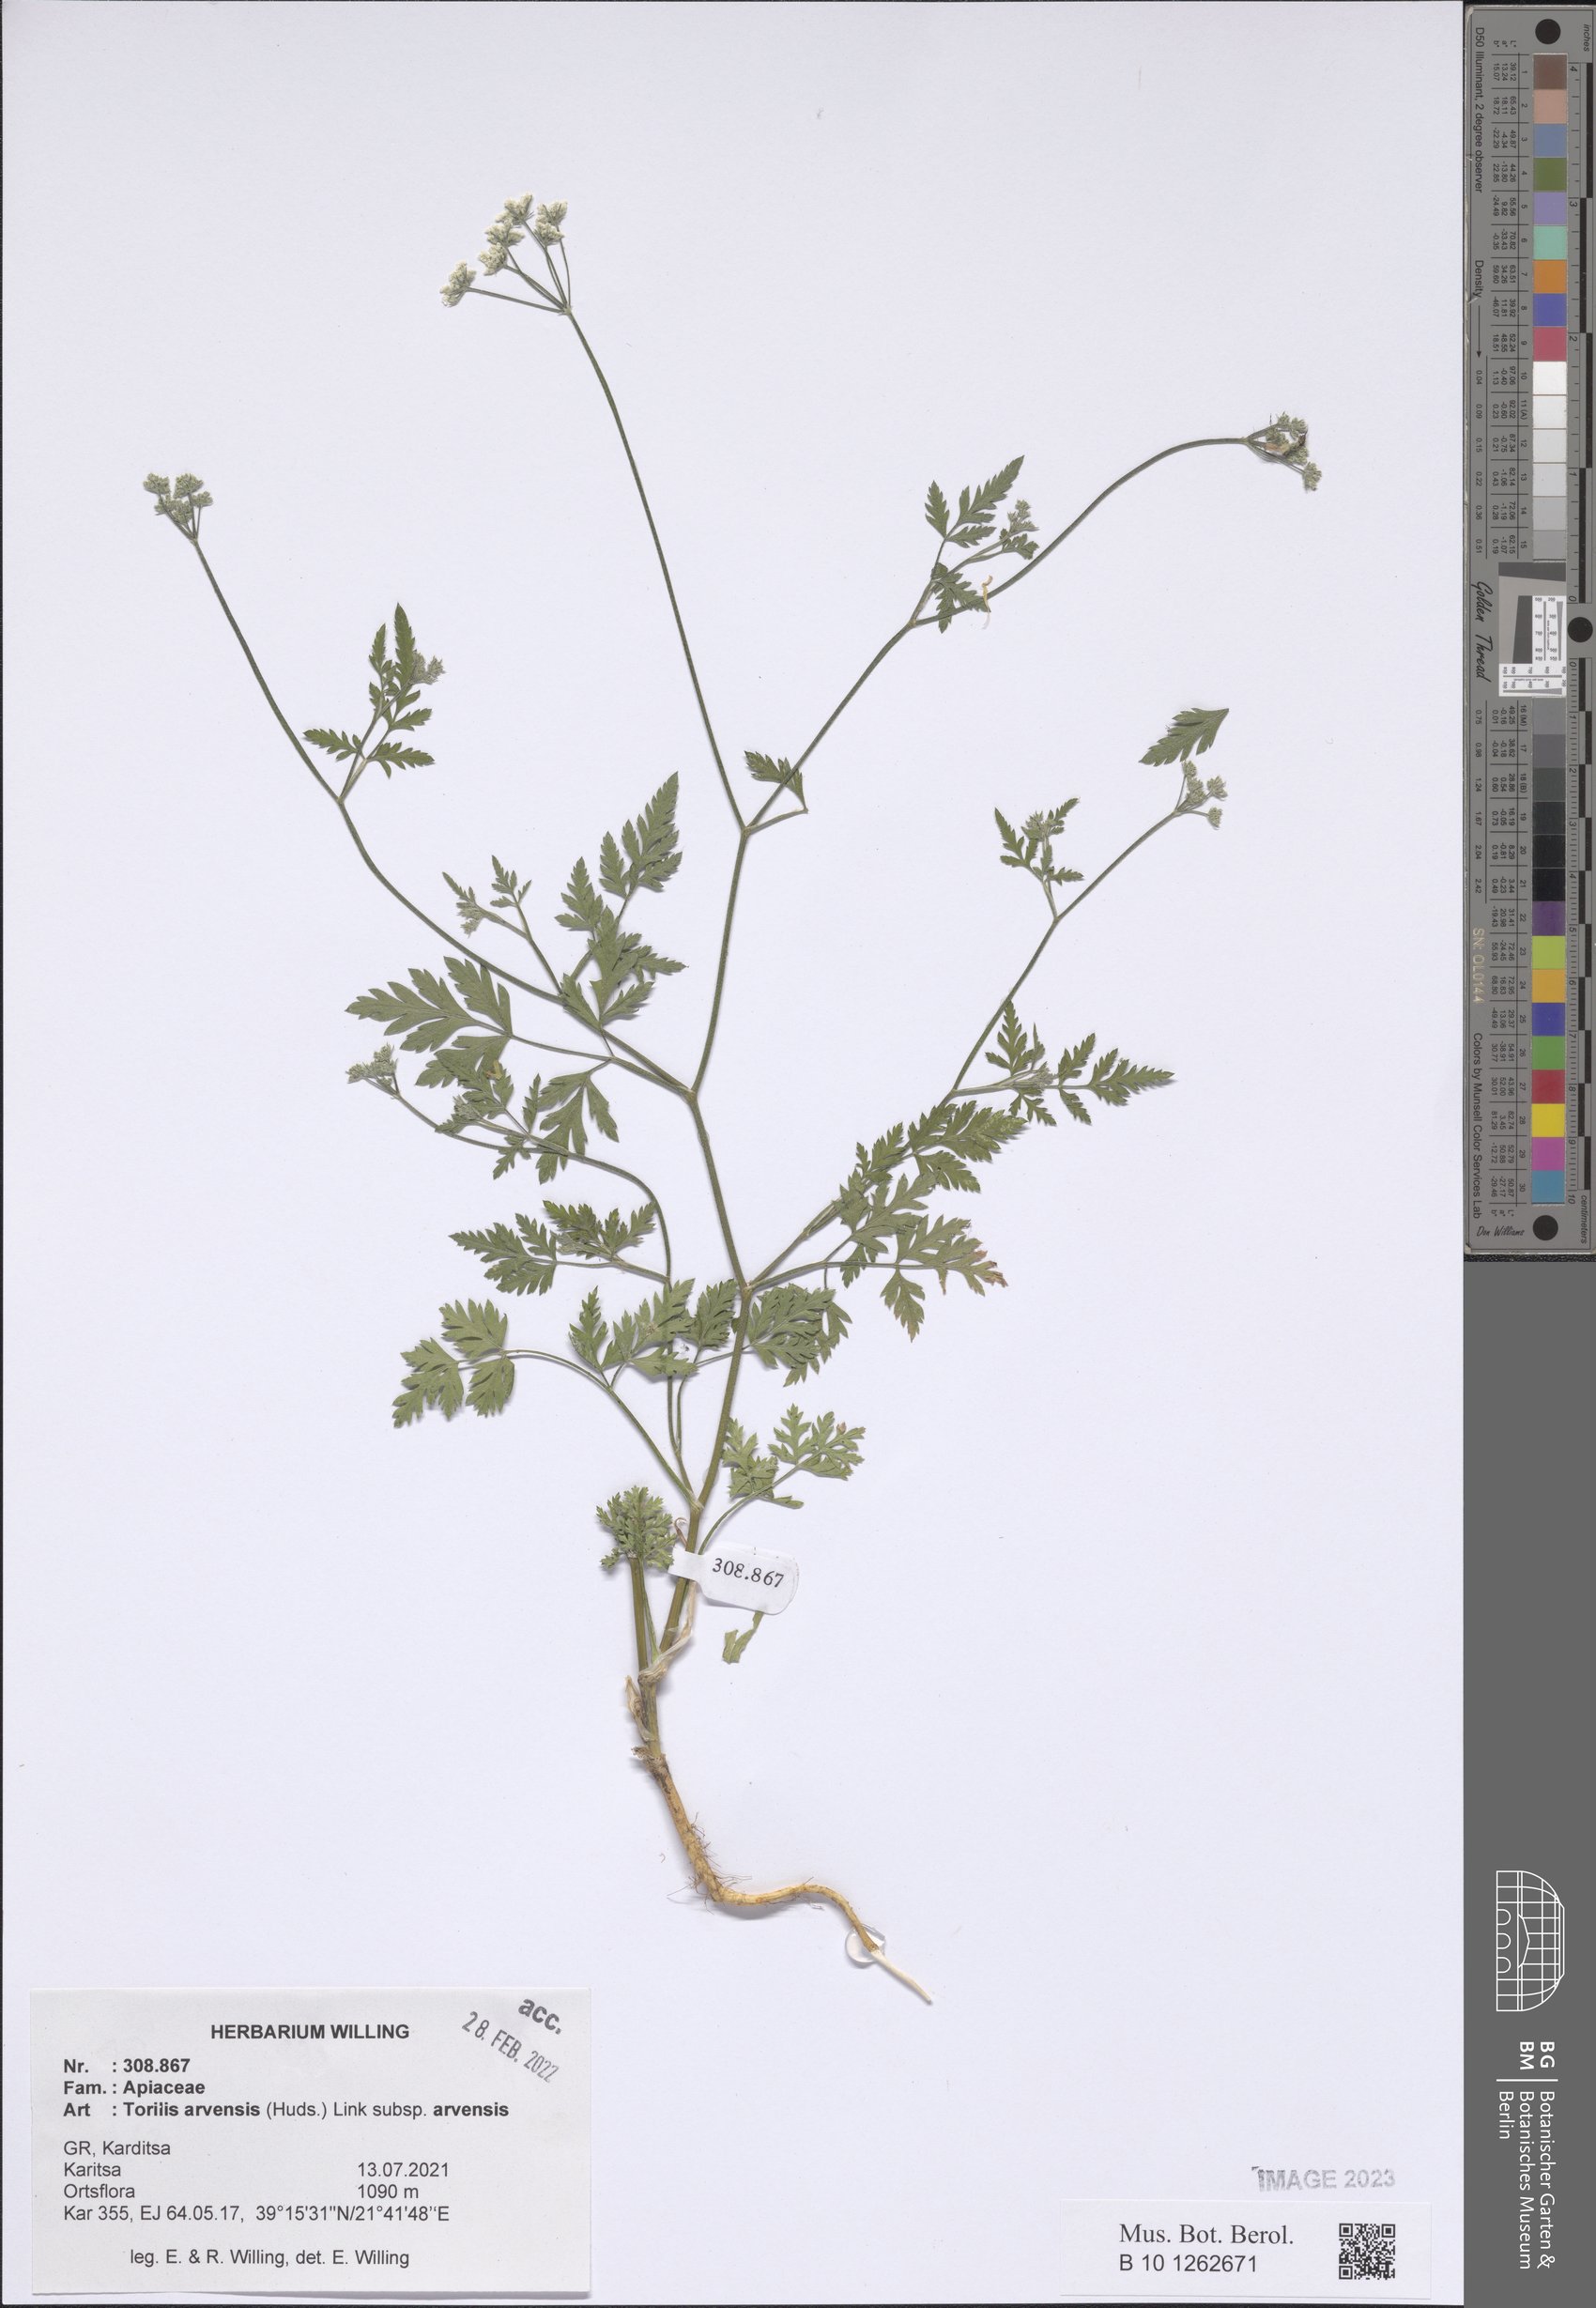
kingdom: Plantae
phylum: Tracheophyta
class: Magnoliopsida
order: Apiales
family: Apiaceae
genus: Torilis
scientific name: Torilis arvensis
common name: Spreading hedge-parsley
